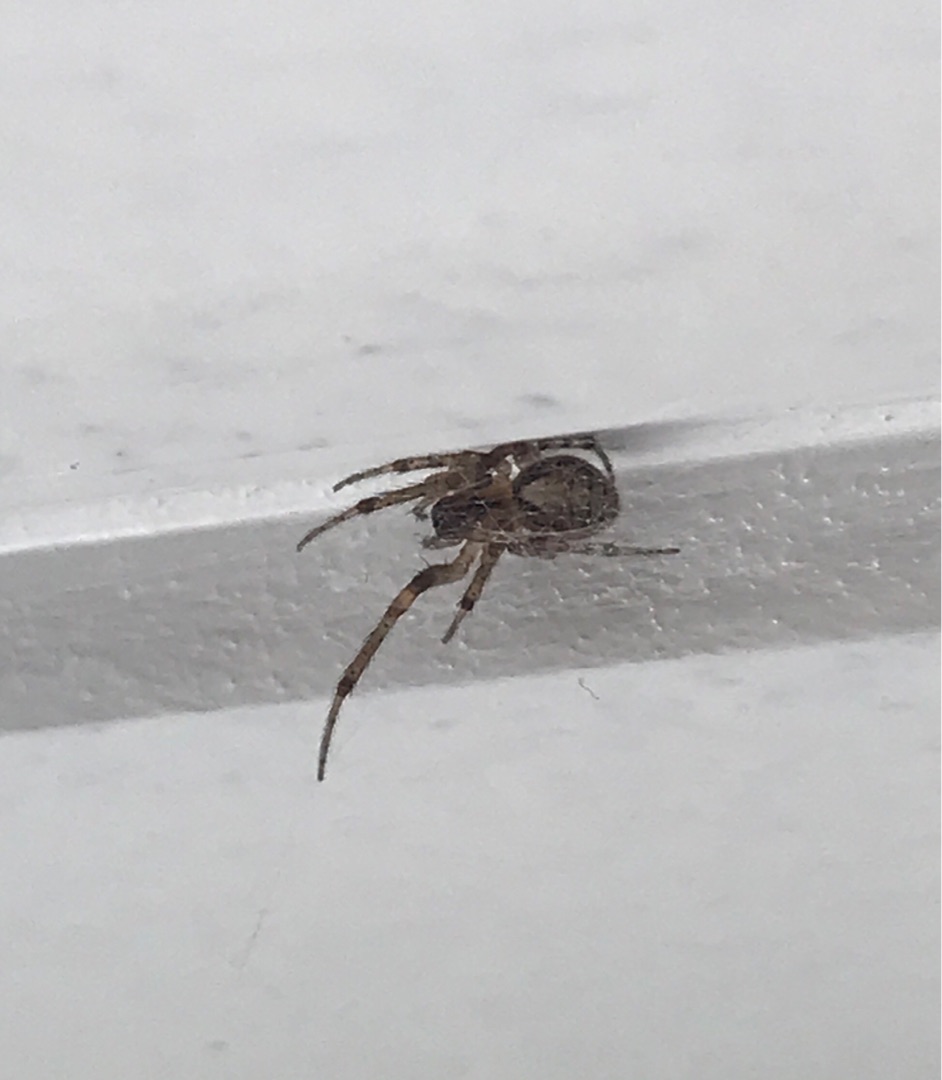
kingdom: Animalia
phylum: Arthropoda
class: Arachnida
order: Araneae
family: Araneidae
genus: Zygiella
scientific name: Zygiella x-notata
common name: Grå sektoredderkop
